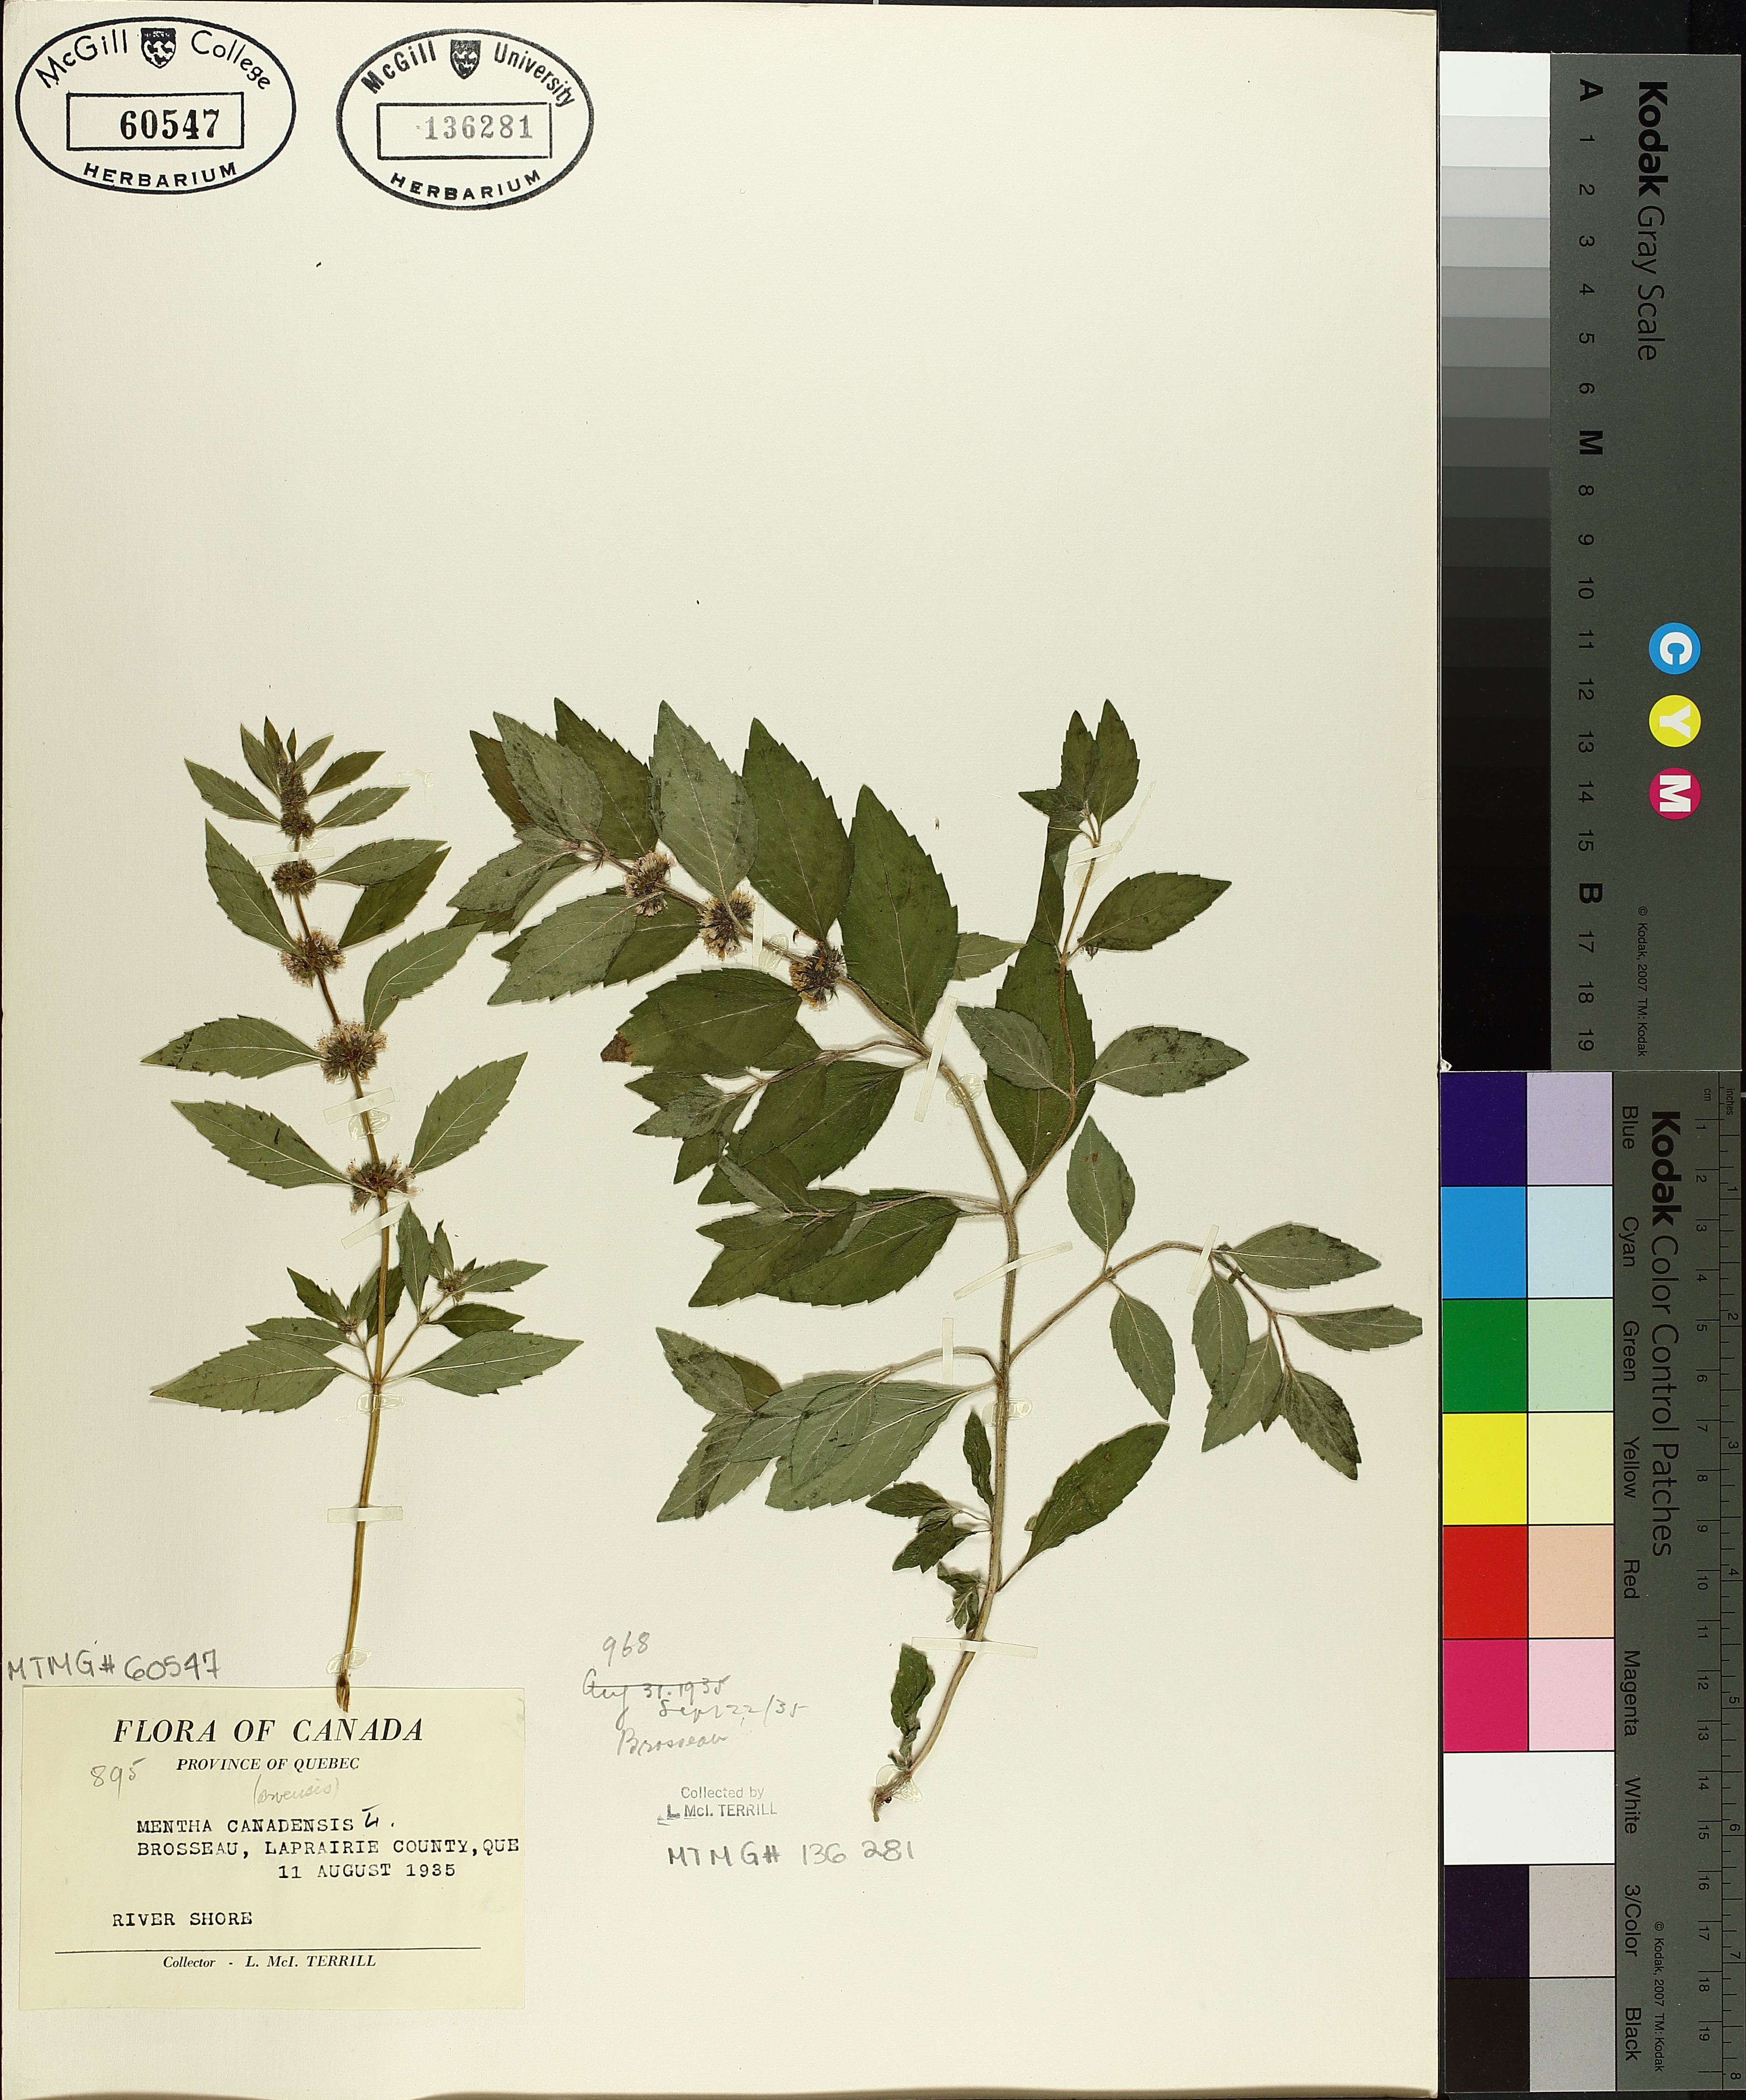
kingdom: Plantae
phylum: Tracheophyta
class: Magnoliopsida
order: Lamiales
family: Lamiaceae
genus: Mentha
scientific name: Mentha canadensis
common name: American corn mint
